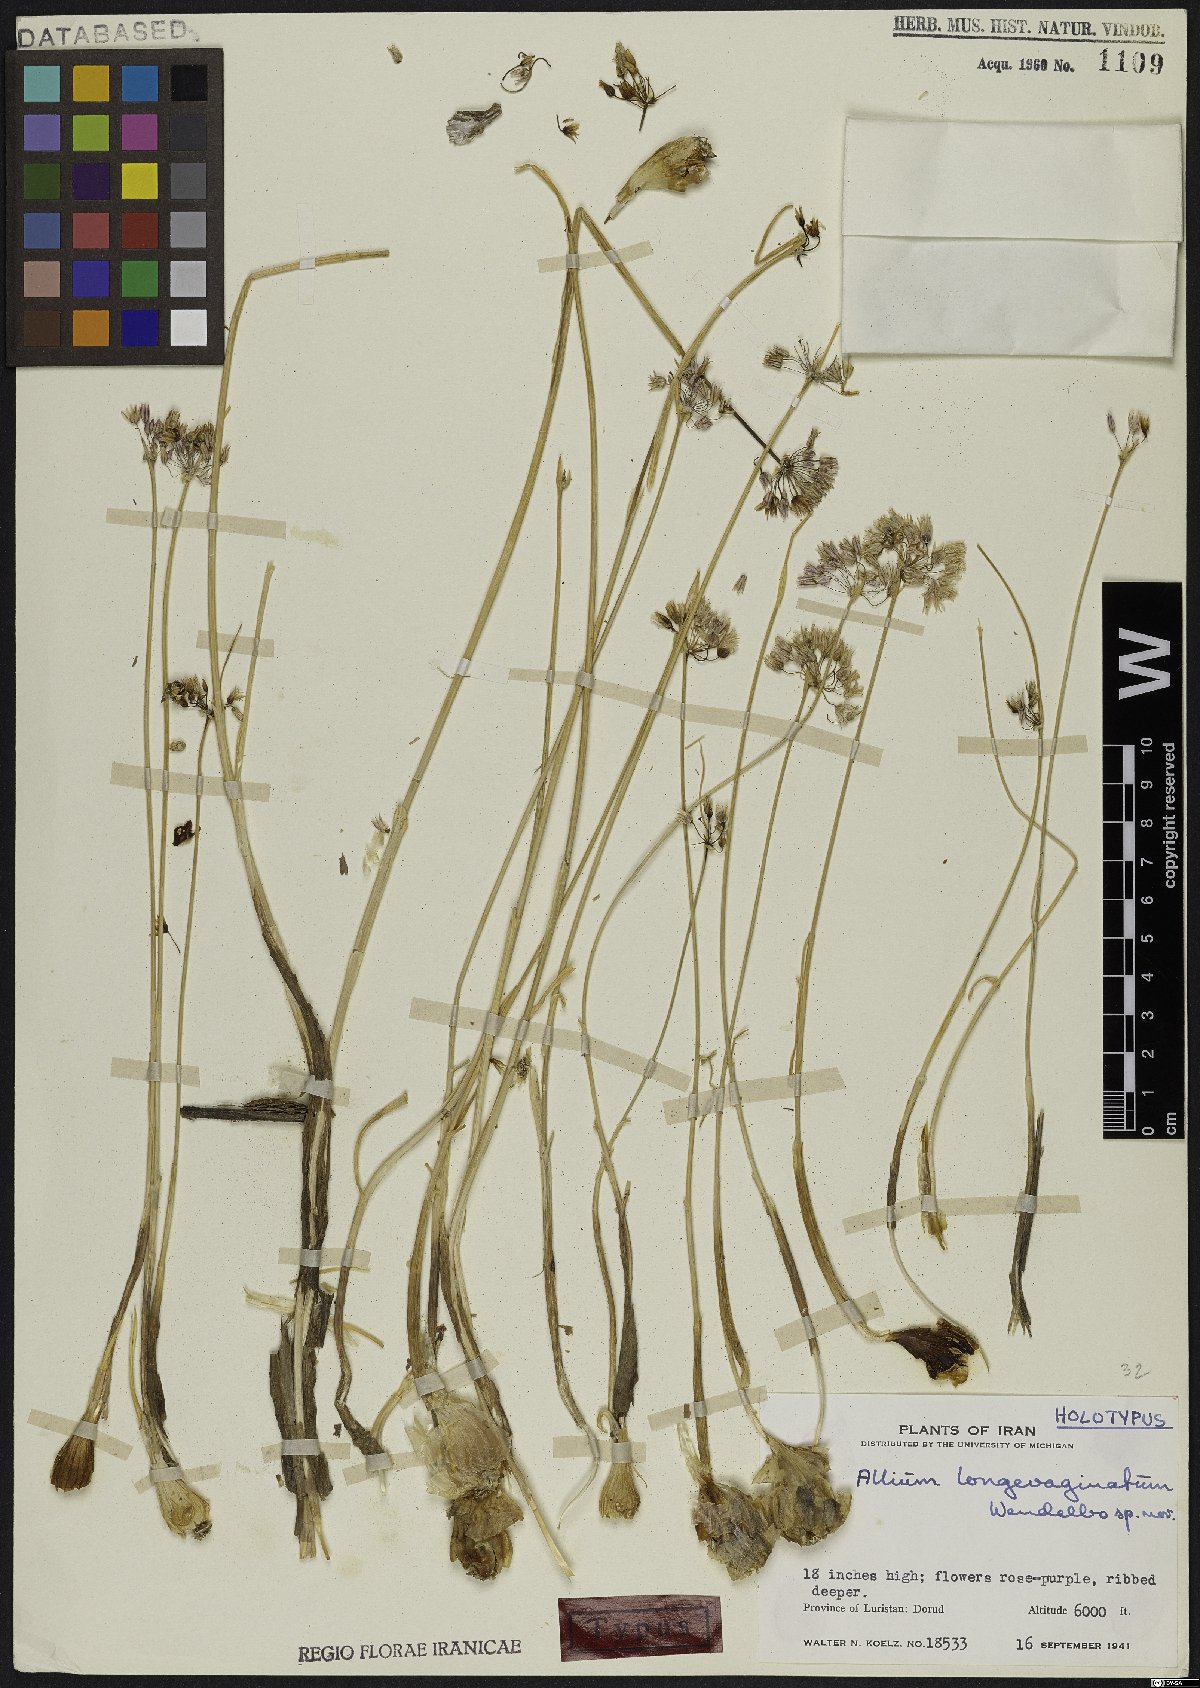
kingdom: Plantae
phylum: Tracheophyta
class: Liliopsida
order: Asparagales
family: Amaryllidaceae
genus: Allium
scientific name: Allium longevaginatum
